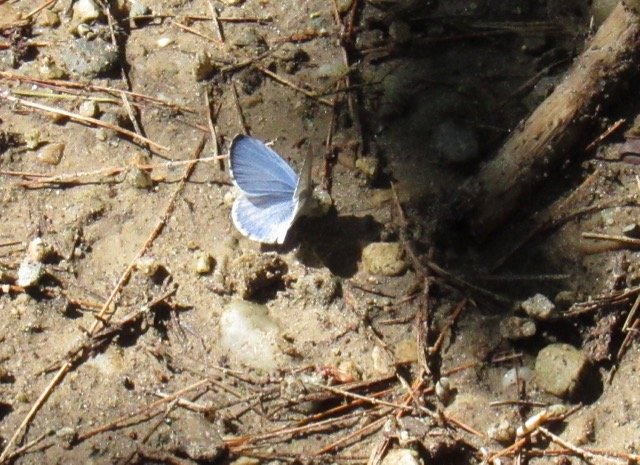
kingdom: Animalia
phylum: Arthropoda
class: Insecta
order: Lepidoptera
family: Lycaenidae
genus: Cyaniris
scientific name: Cyaniris neglecta
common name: Summer Azure
